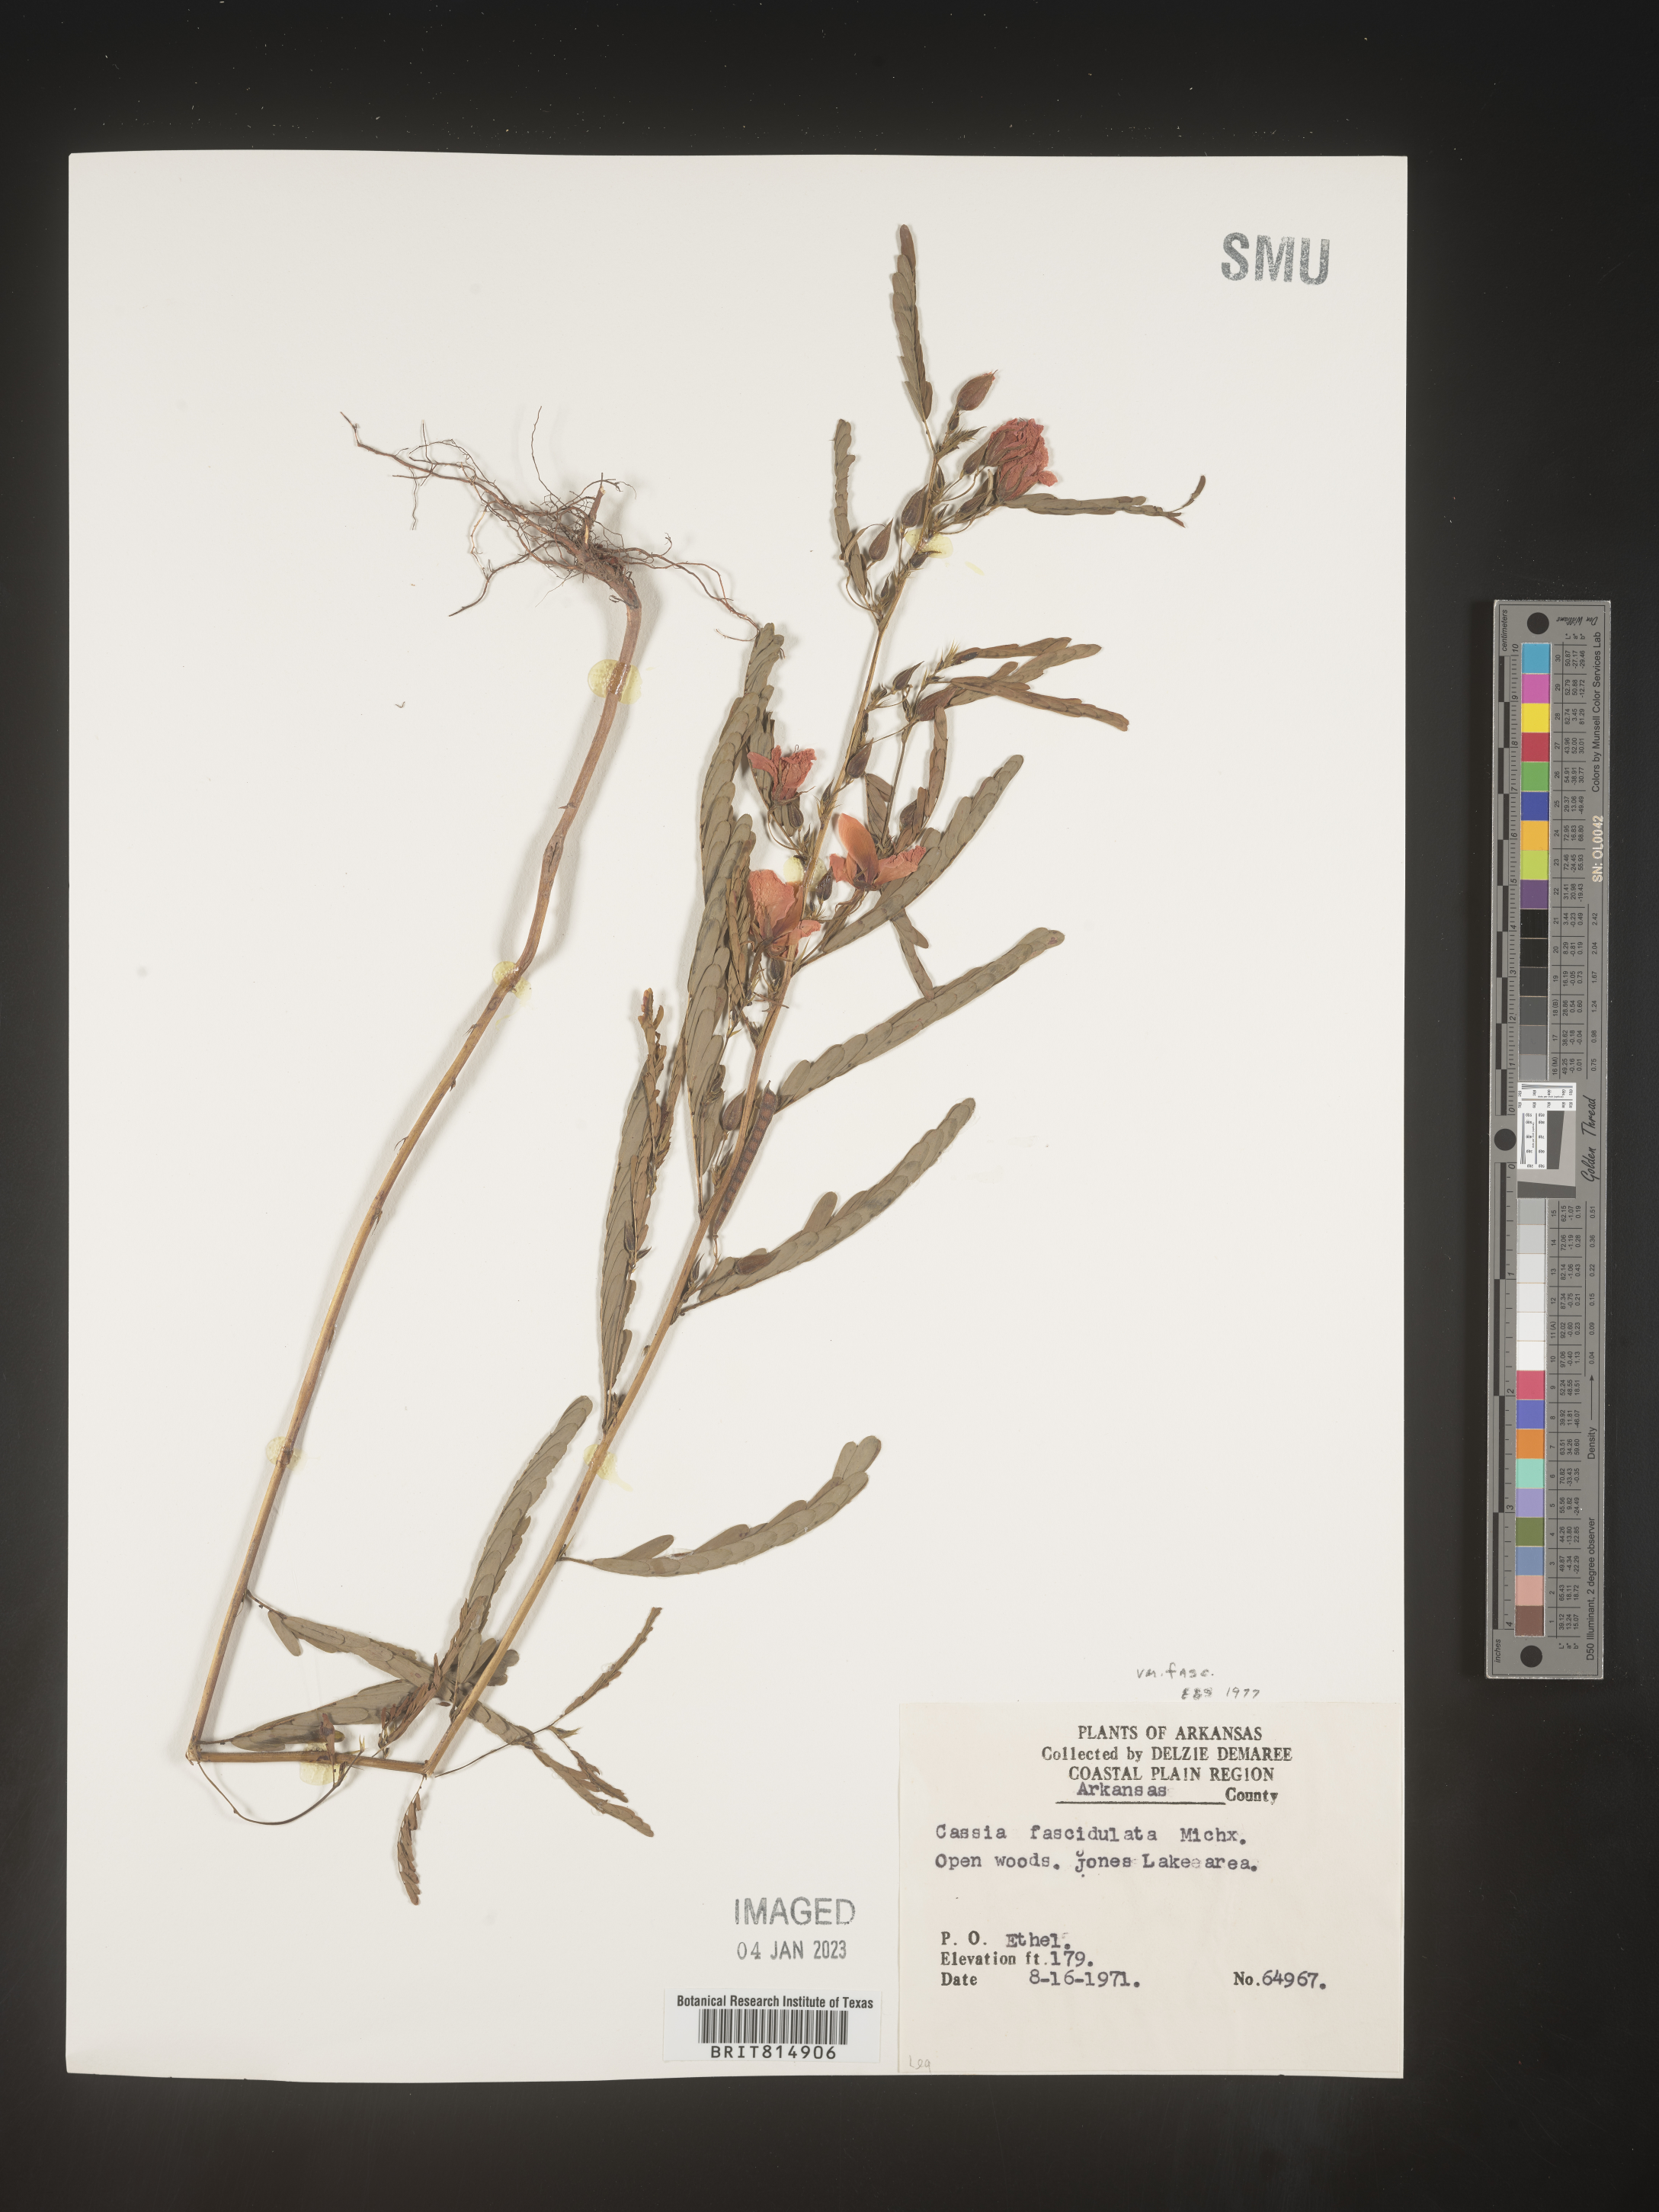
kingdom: Plantae
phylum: Tracheophyta
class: Magnoliopsida
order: Fabales
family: Fabaceae
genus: Chamaecrista
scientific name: Chamaecrista fasciculata
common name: Golden cassia
